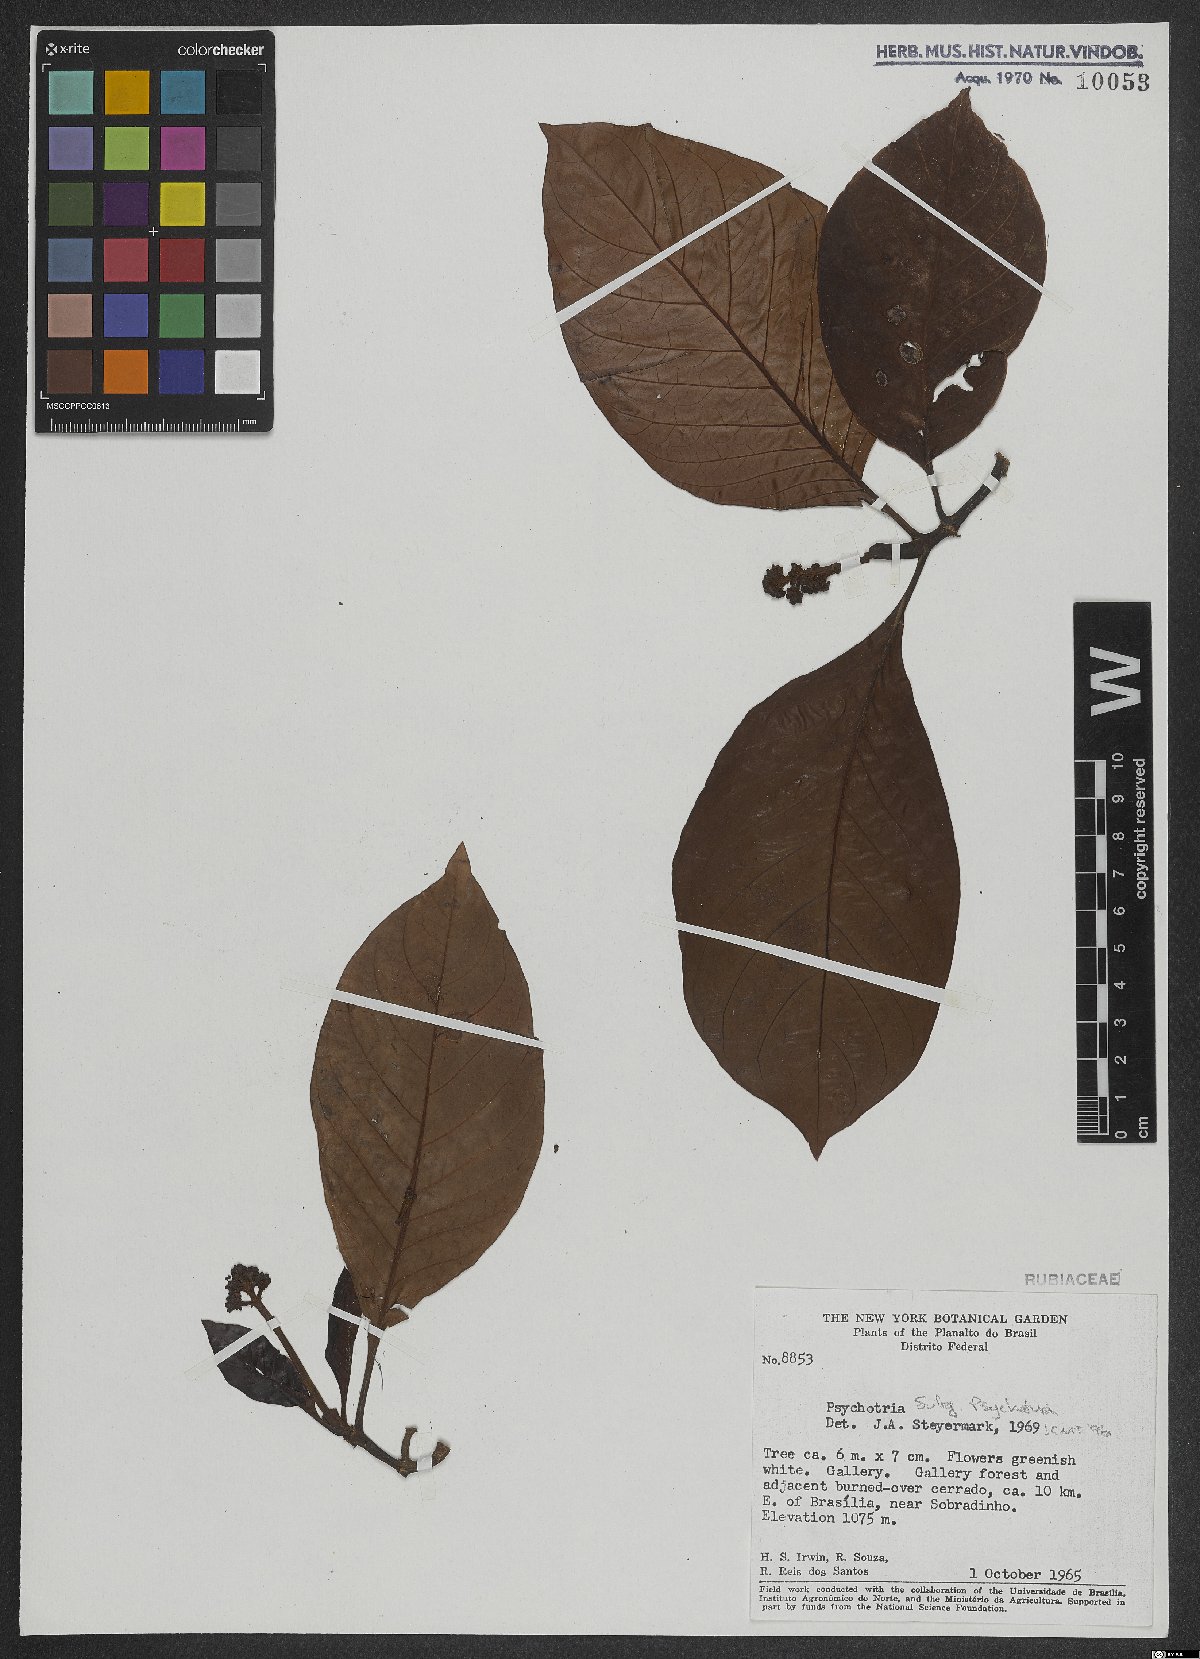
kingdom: Plantae
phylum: Tracheophyta
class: Magnoliopsida
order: Gentianales
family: Rubiaceae
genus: Psychotria
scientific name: Psychotria
